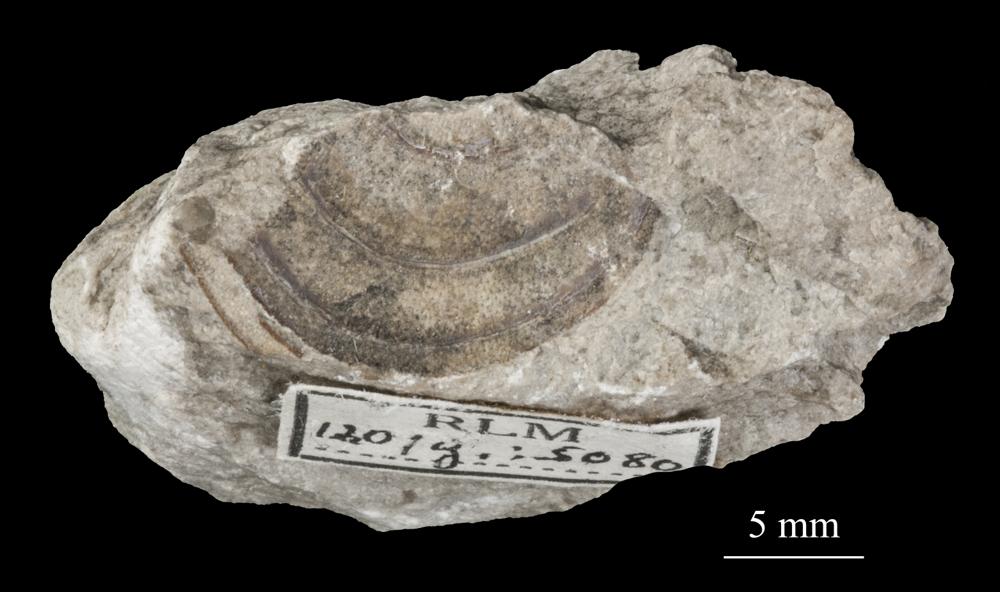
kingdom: Animalia
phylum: Brachiopoda
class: Lingulata
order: Siphonotretida
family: Siphonotretidae
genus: Siphonotreta
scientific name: Siphonotreta
